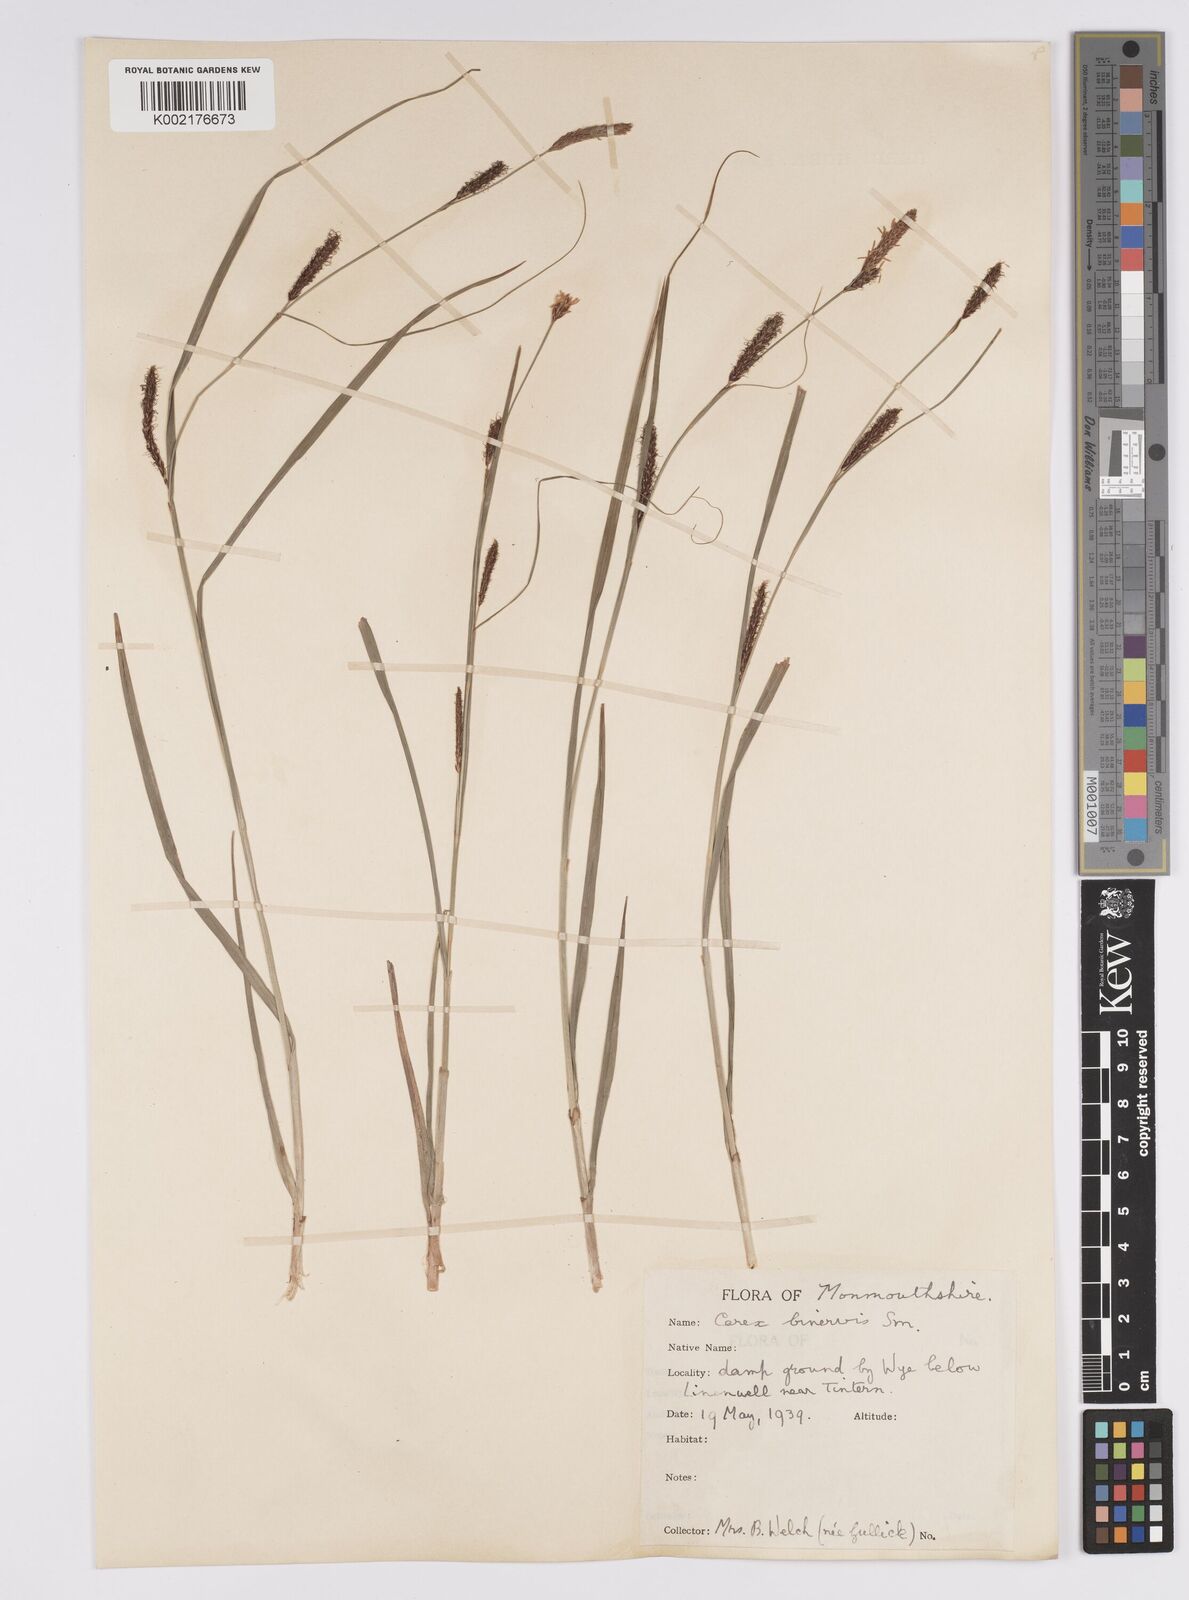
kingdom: Plantae
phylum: Tracheophyta
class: Liliopsida
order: Poales
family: Cyperaceae
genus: Carex
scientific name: Carex binervis
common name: Green-ribbed sedge
